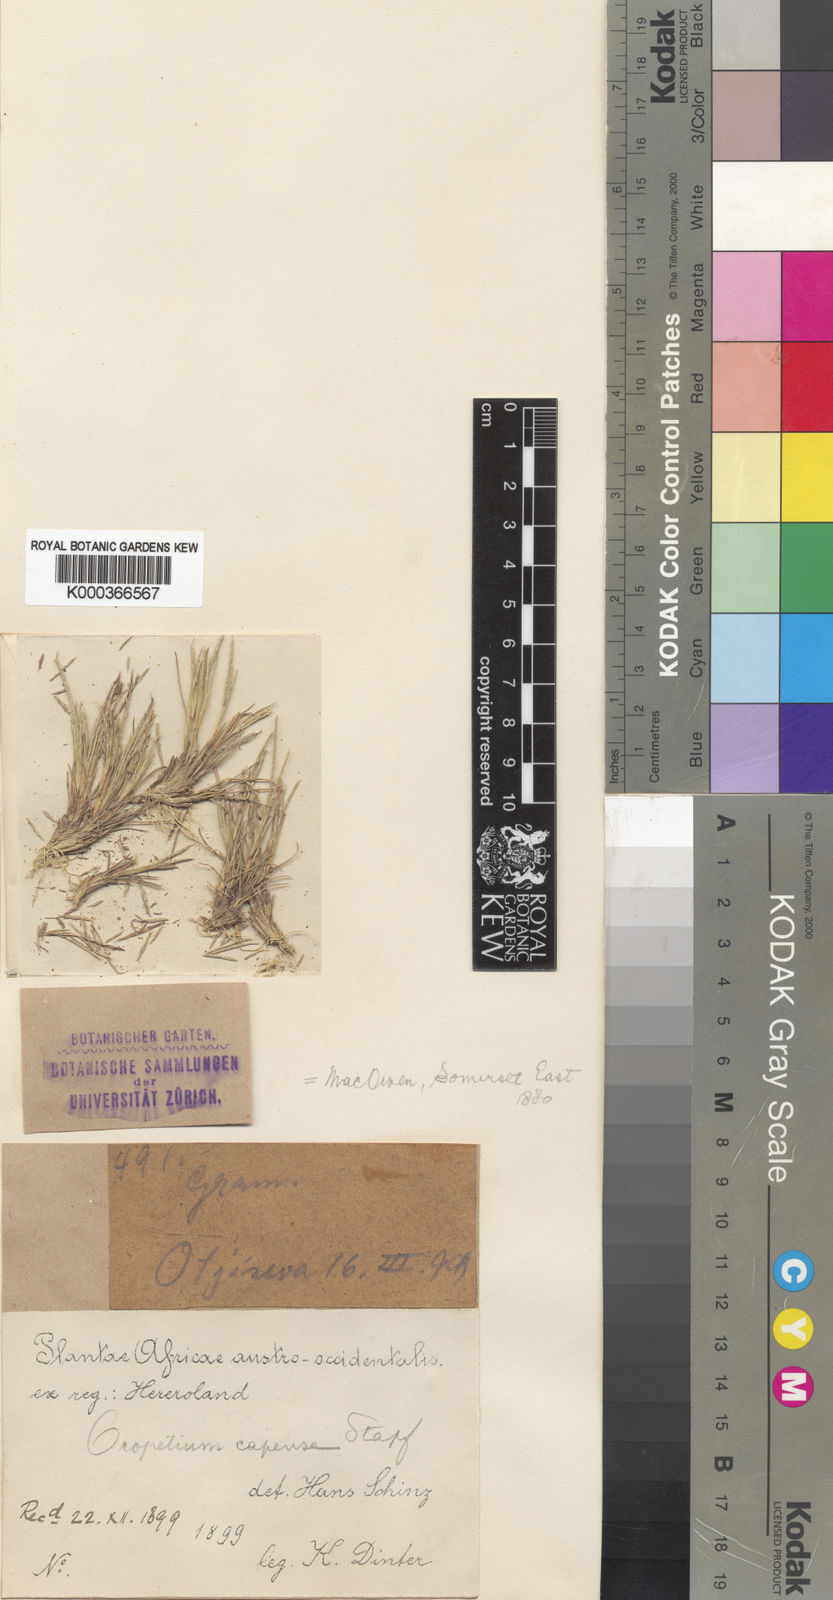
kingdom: Plantae
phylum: Tracheophyta
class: Liliopsida
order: Poales
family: Poaceae
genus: Oropetium
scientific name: Oropetium capense
